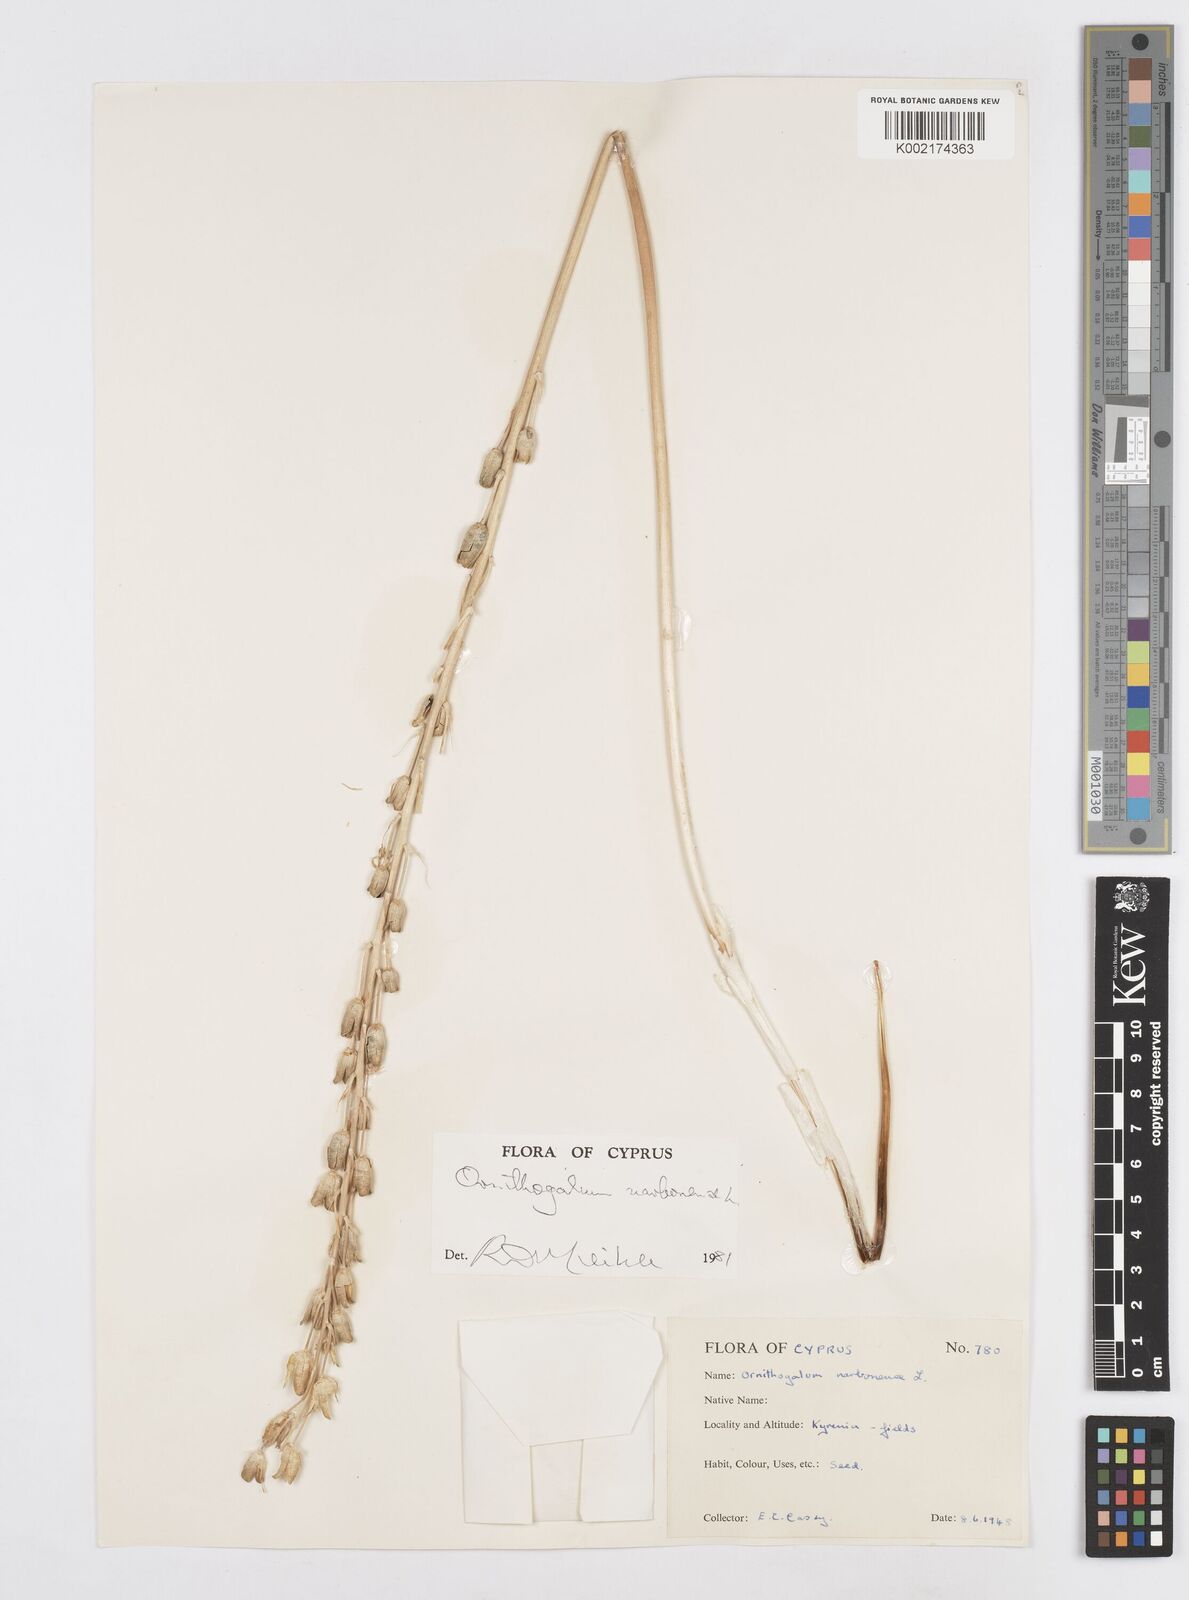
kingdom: Plantae
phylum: Tracheophyta
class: Liliopsida
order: Asparagales
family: Asparagaceae
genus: Ornithogalum
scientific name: Ornithogalum narbonense
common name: Bath-asparagus
